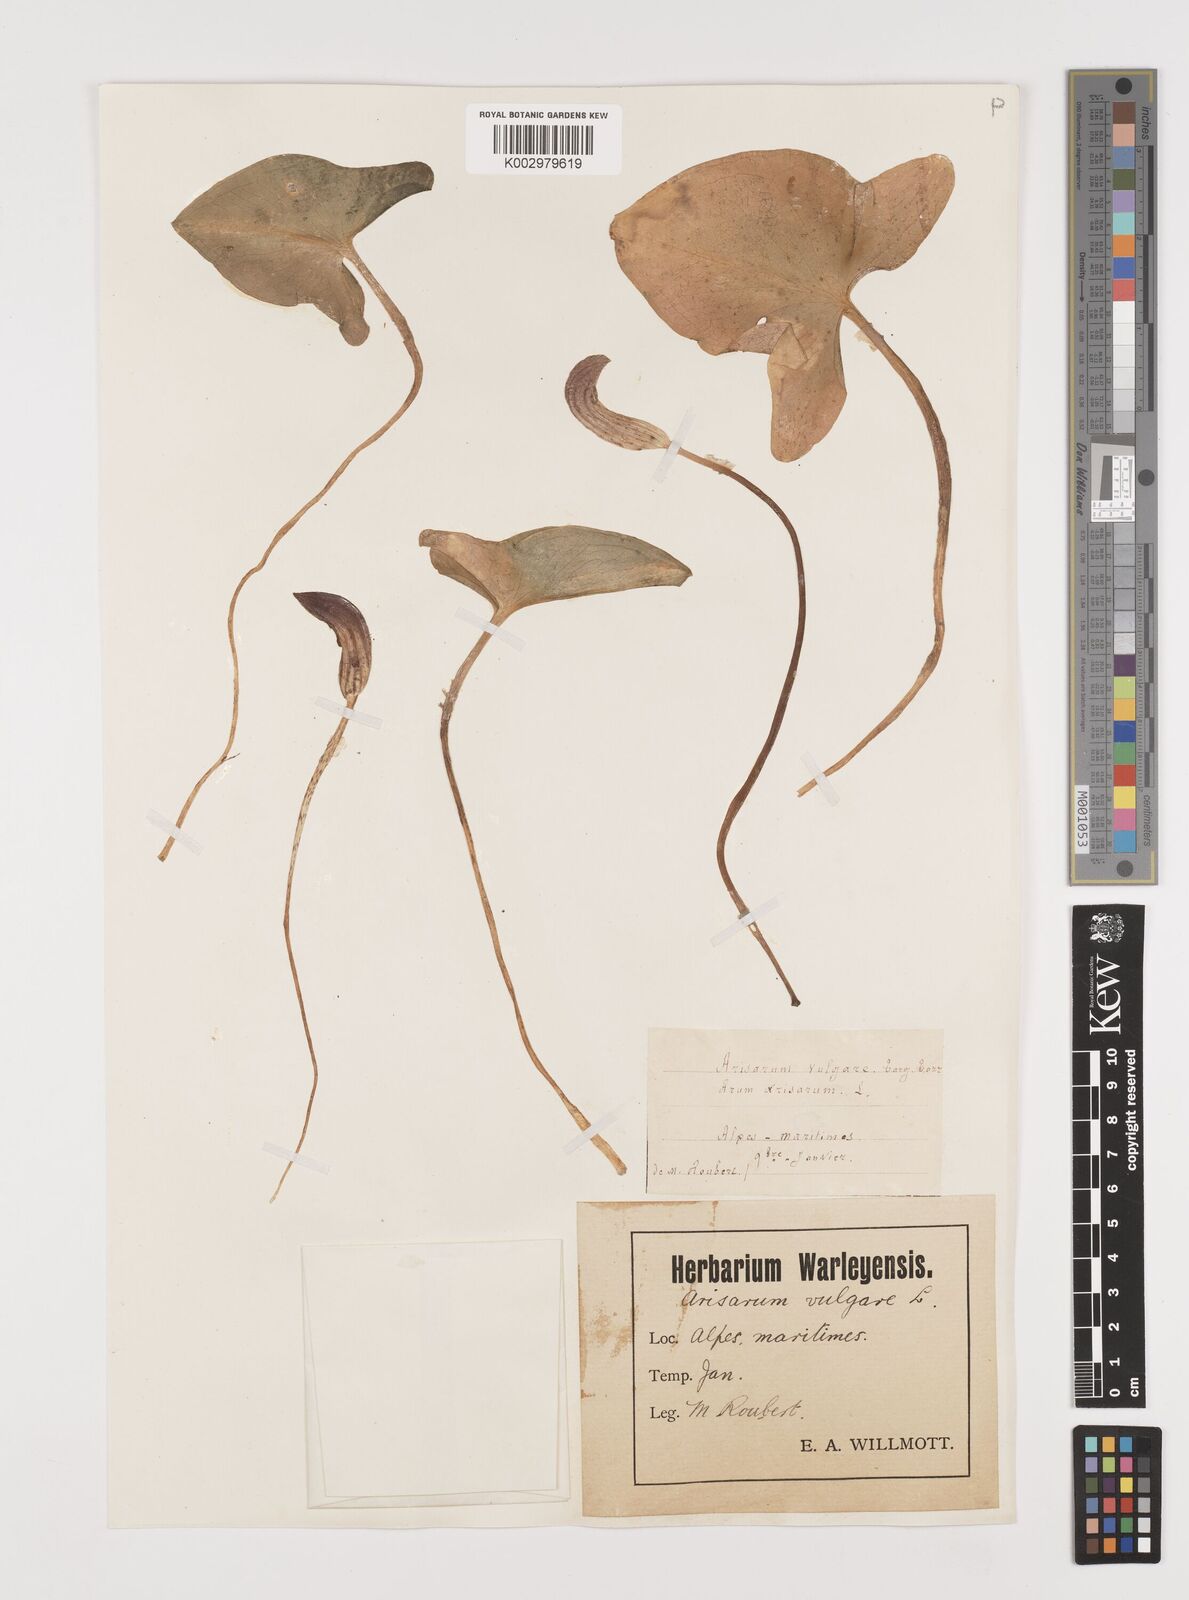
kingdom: Plantae
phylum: Tracheophyta
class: Liliopsida
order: Alismatales
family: Araceae
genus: Arisarum
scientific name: Arisarum vulgare
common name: Common arisarum
